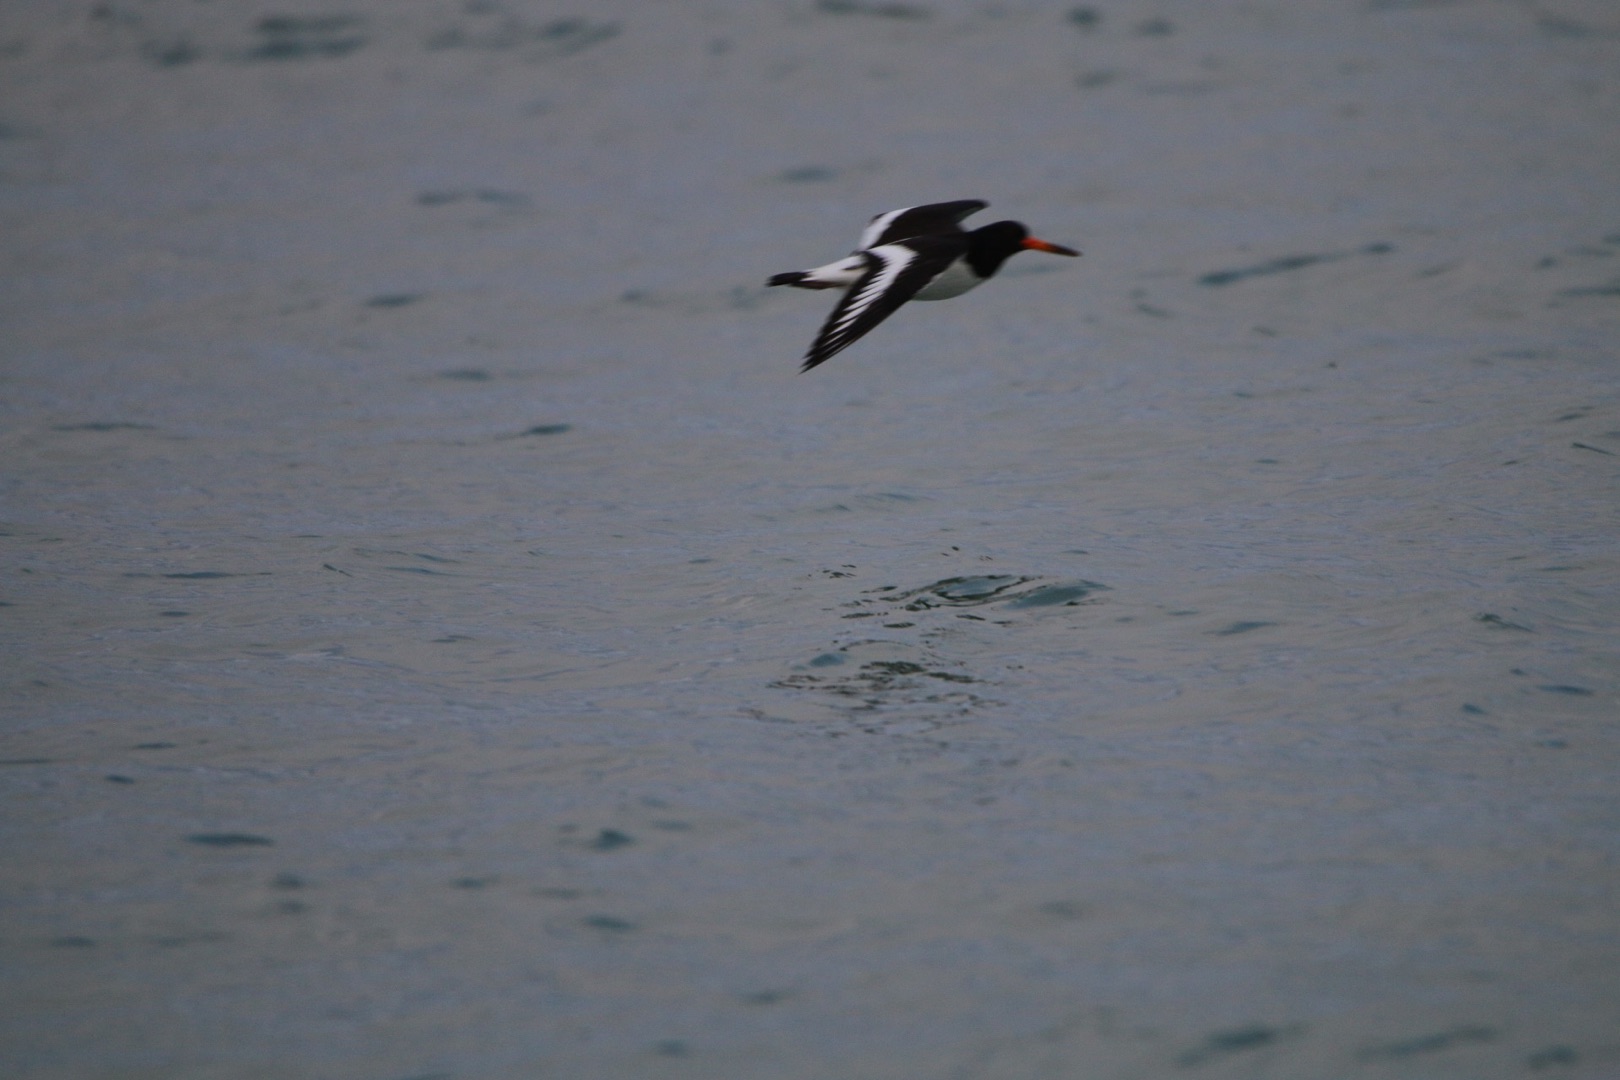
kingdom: Animalia
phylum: Chordata
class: Aves
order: Charadriiformes
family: Haematopodidae
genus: Haematopus
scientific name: Haematopus ostralegus
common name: Strandskade
